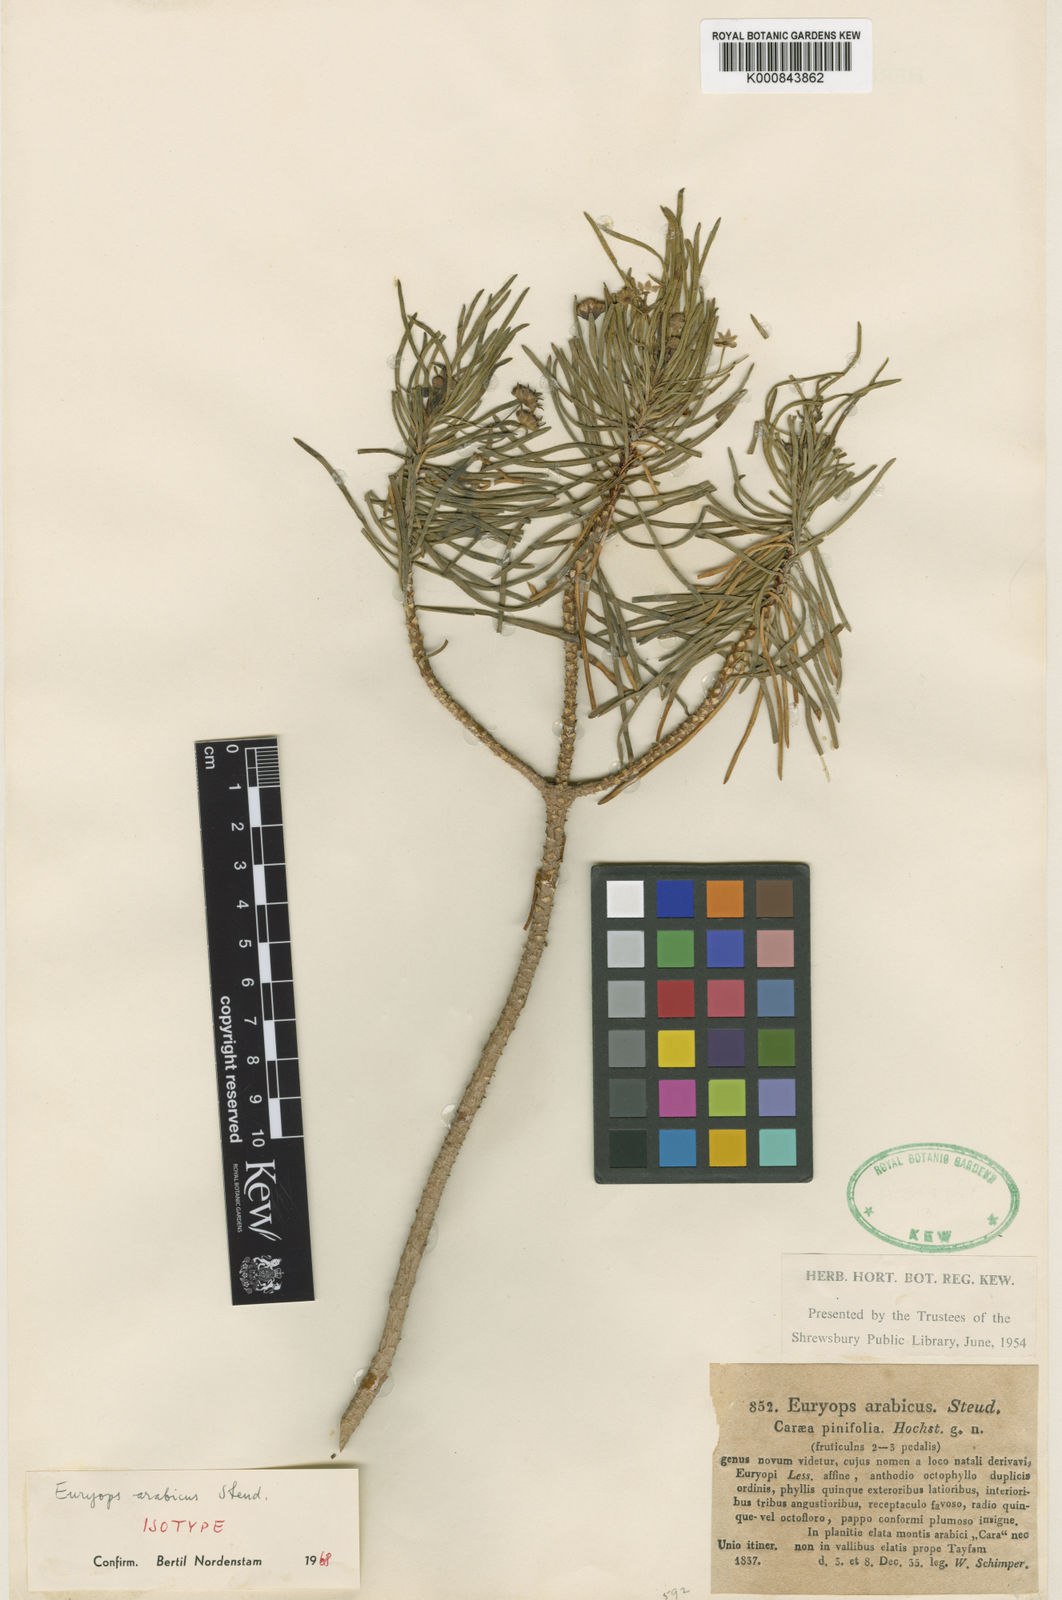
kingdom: Plantae
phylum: Tracheophyta
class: Magnoliopsida
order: Asterales
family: Asteraceae
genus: Euryops
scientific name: Euryops
